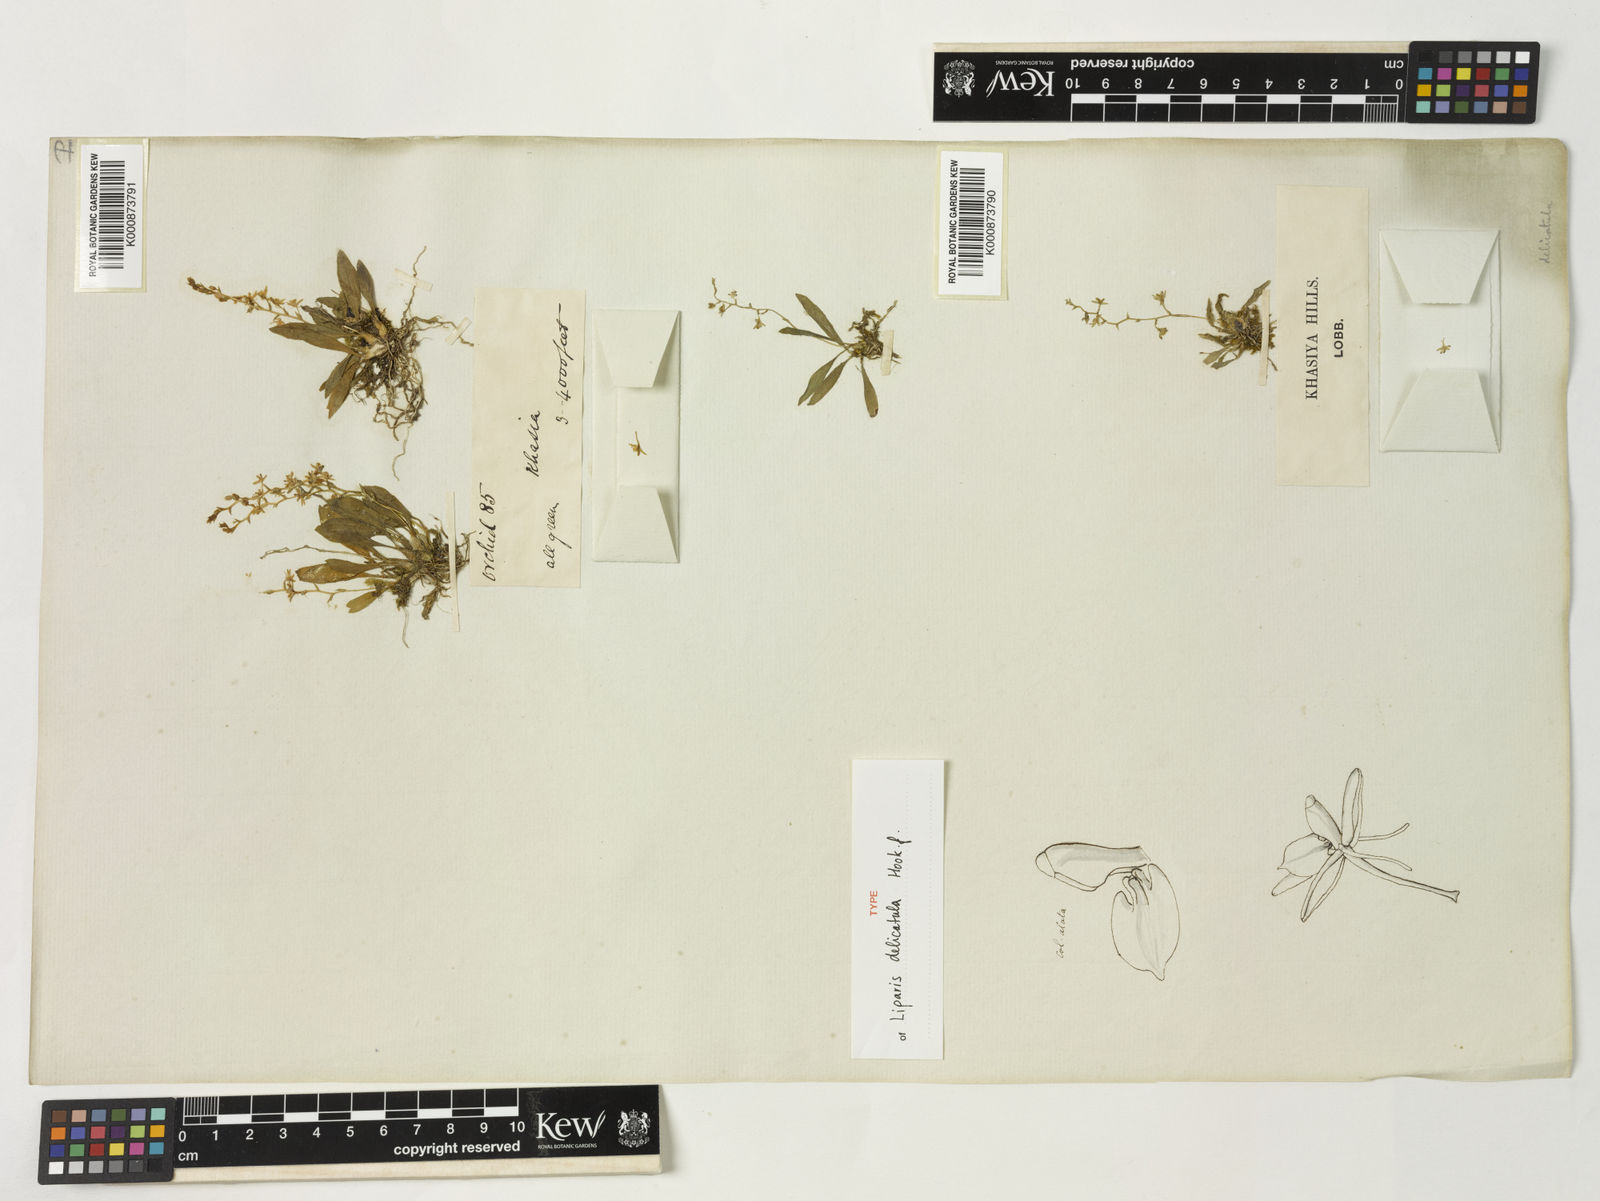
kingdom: Plantae
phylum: Tracheophyta
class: Liliopsida
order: Asparagales
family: Orchidaceae
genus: Liparis
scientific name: Liparis delicatula
